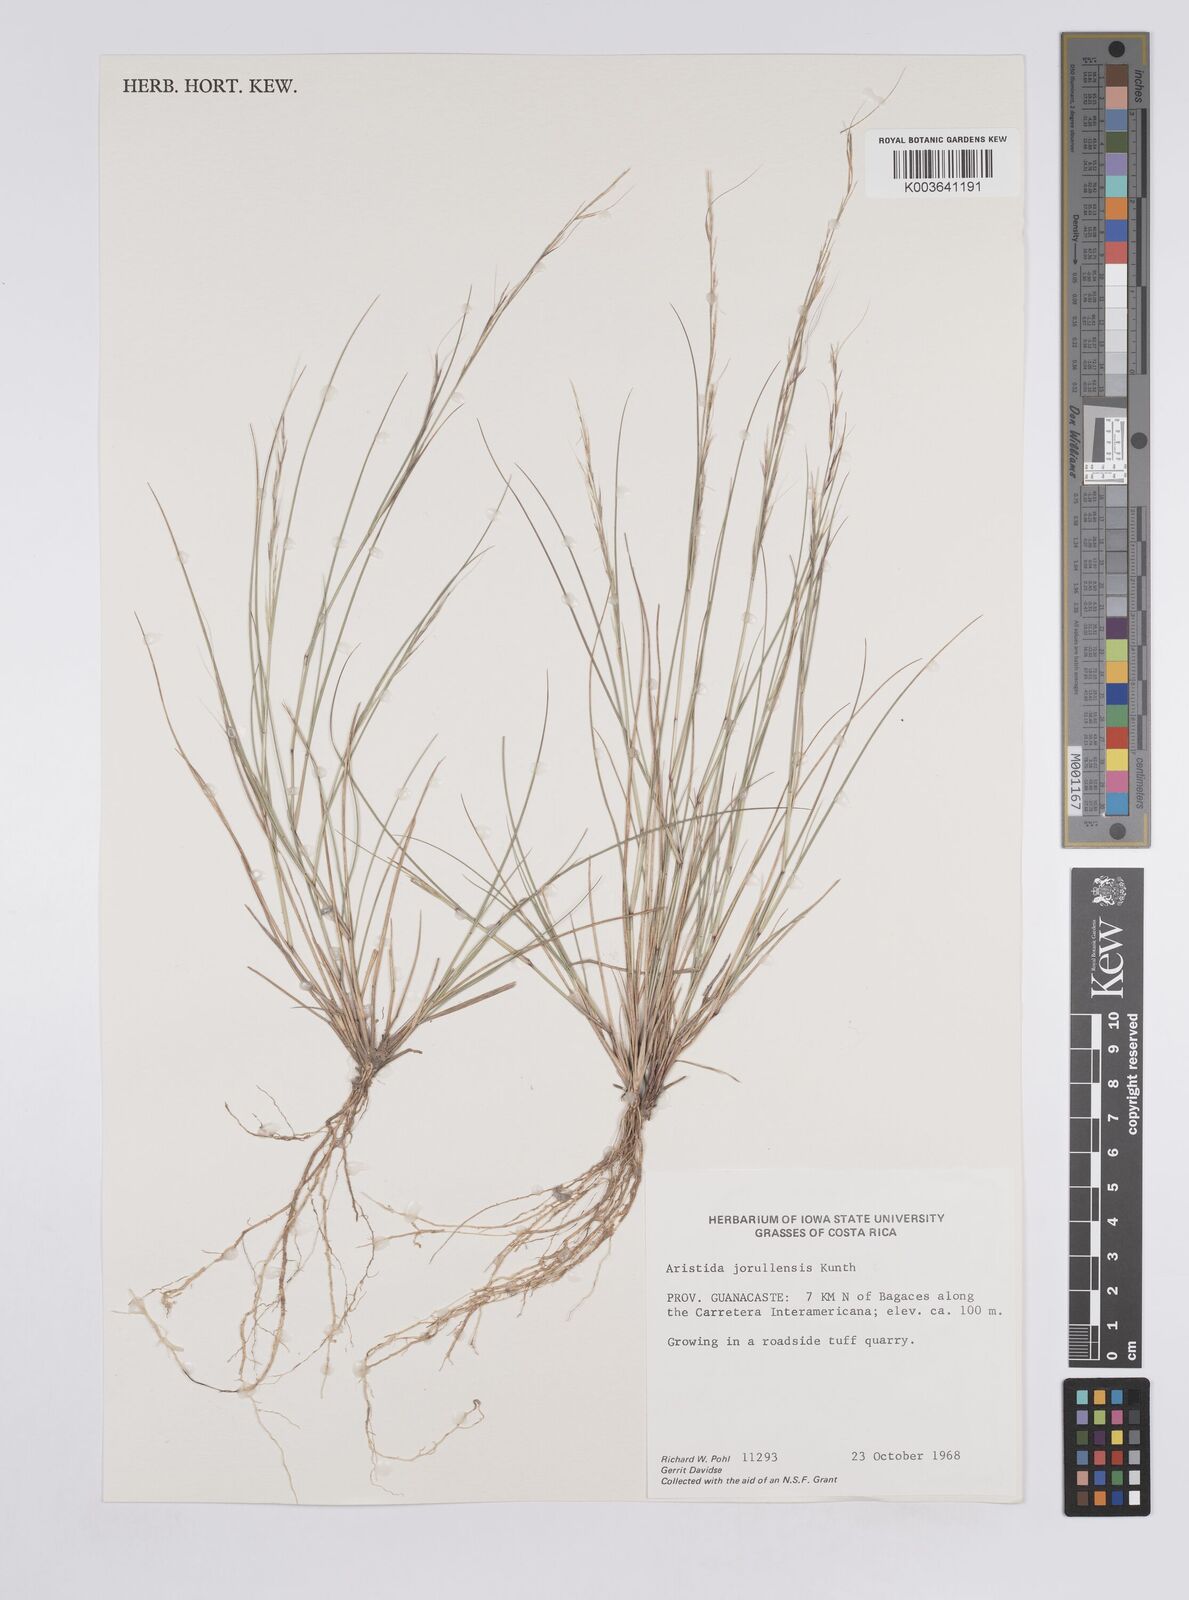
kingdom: Plantae
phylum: Tracheophyta
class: Liliopsida
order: Poales
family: Poaceae
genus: Aristida
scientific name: Aristida jorullensis
